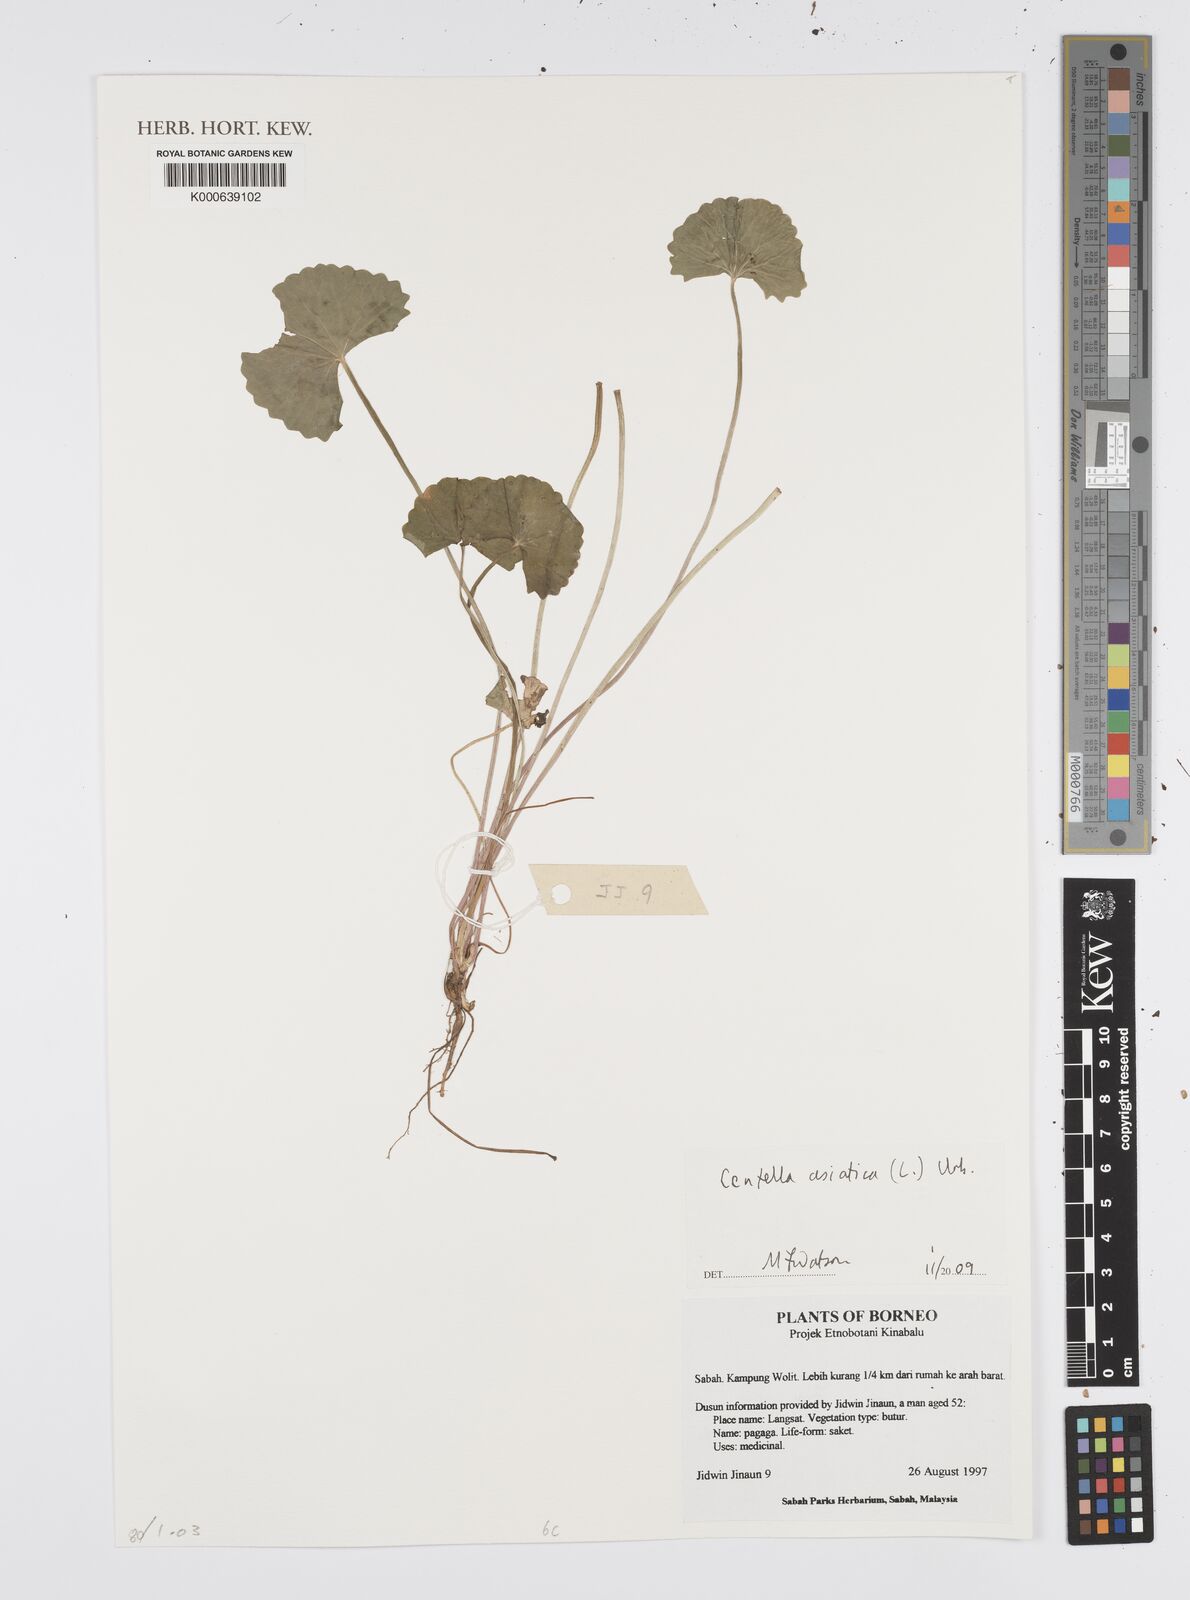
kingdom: Plantae
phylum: Tracheophyta
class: Magnoliopsida
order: Apiales
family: Apiaceae
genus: Centella
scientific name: Centella asiatica
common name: Spadeleaf
